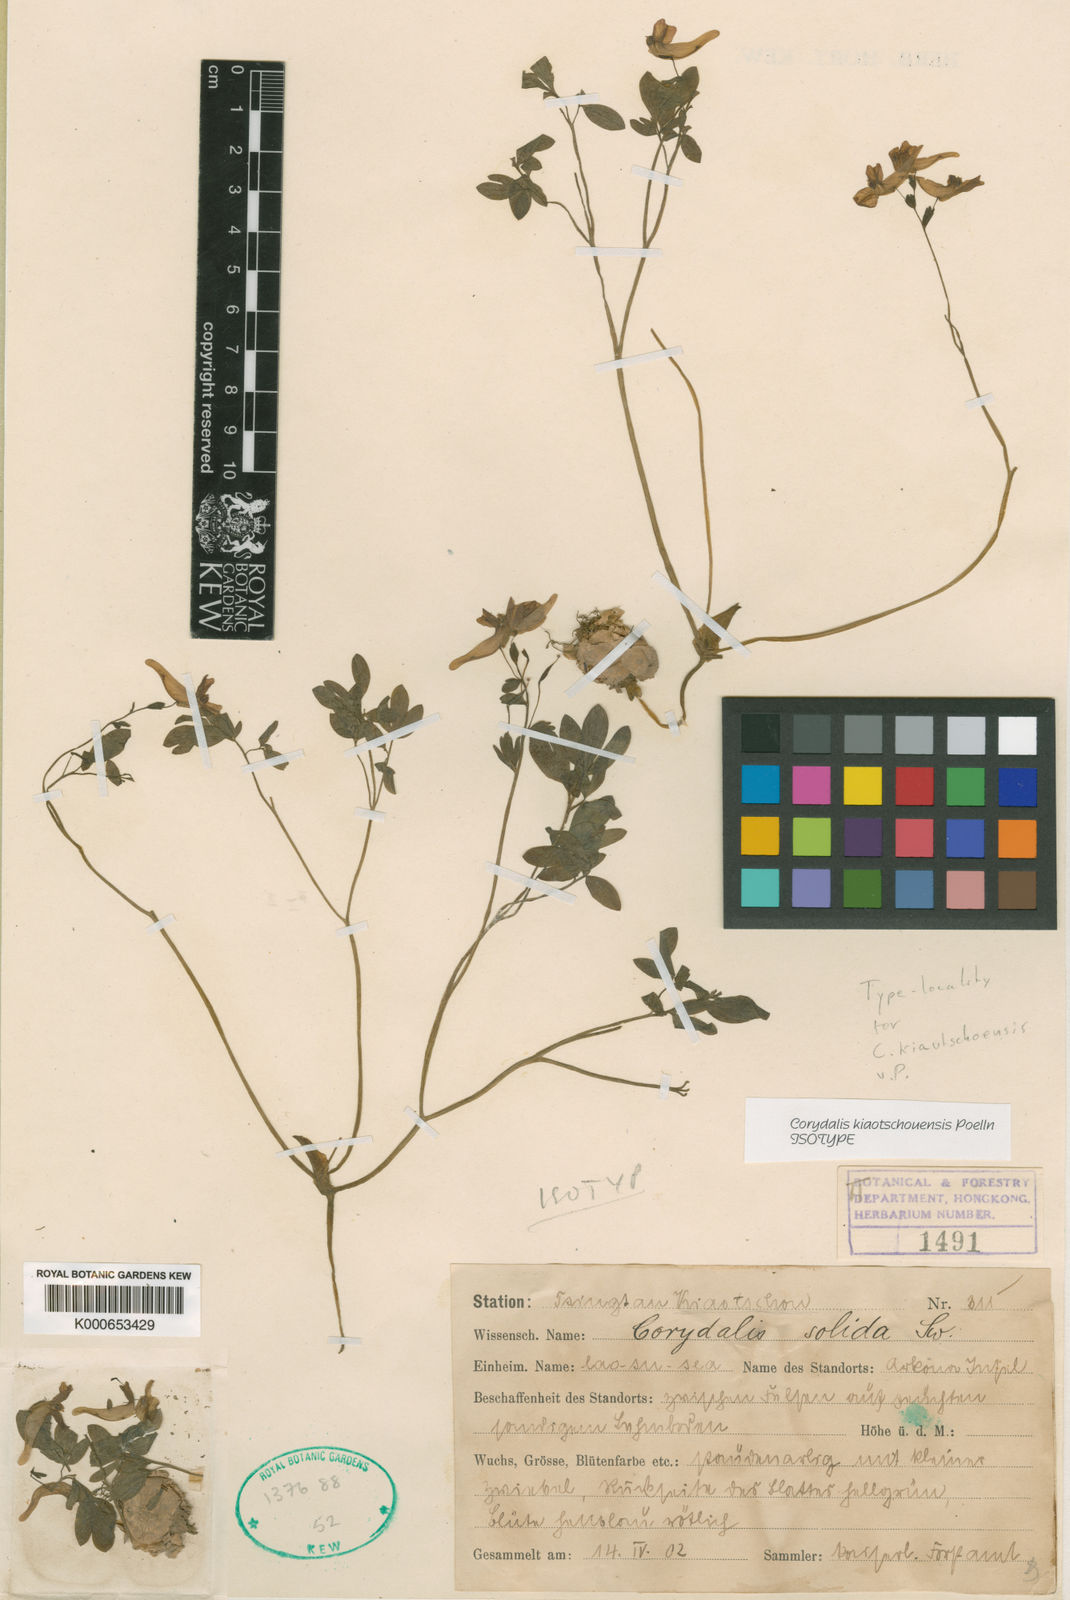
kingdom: Plantae
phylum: Tracheophyta
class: Magnoliopsida
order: Ranunculales
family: Papaveraceae
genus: Corydalis
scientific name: Corydalis kiautschouensis
